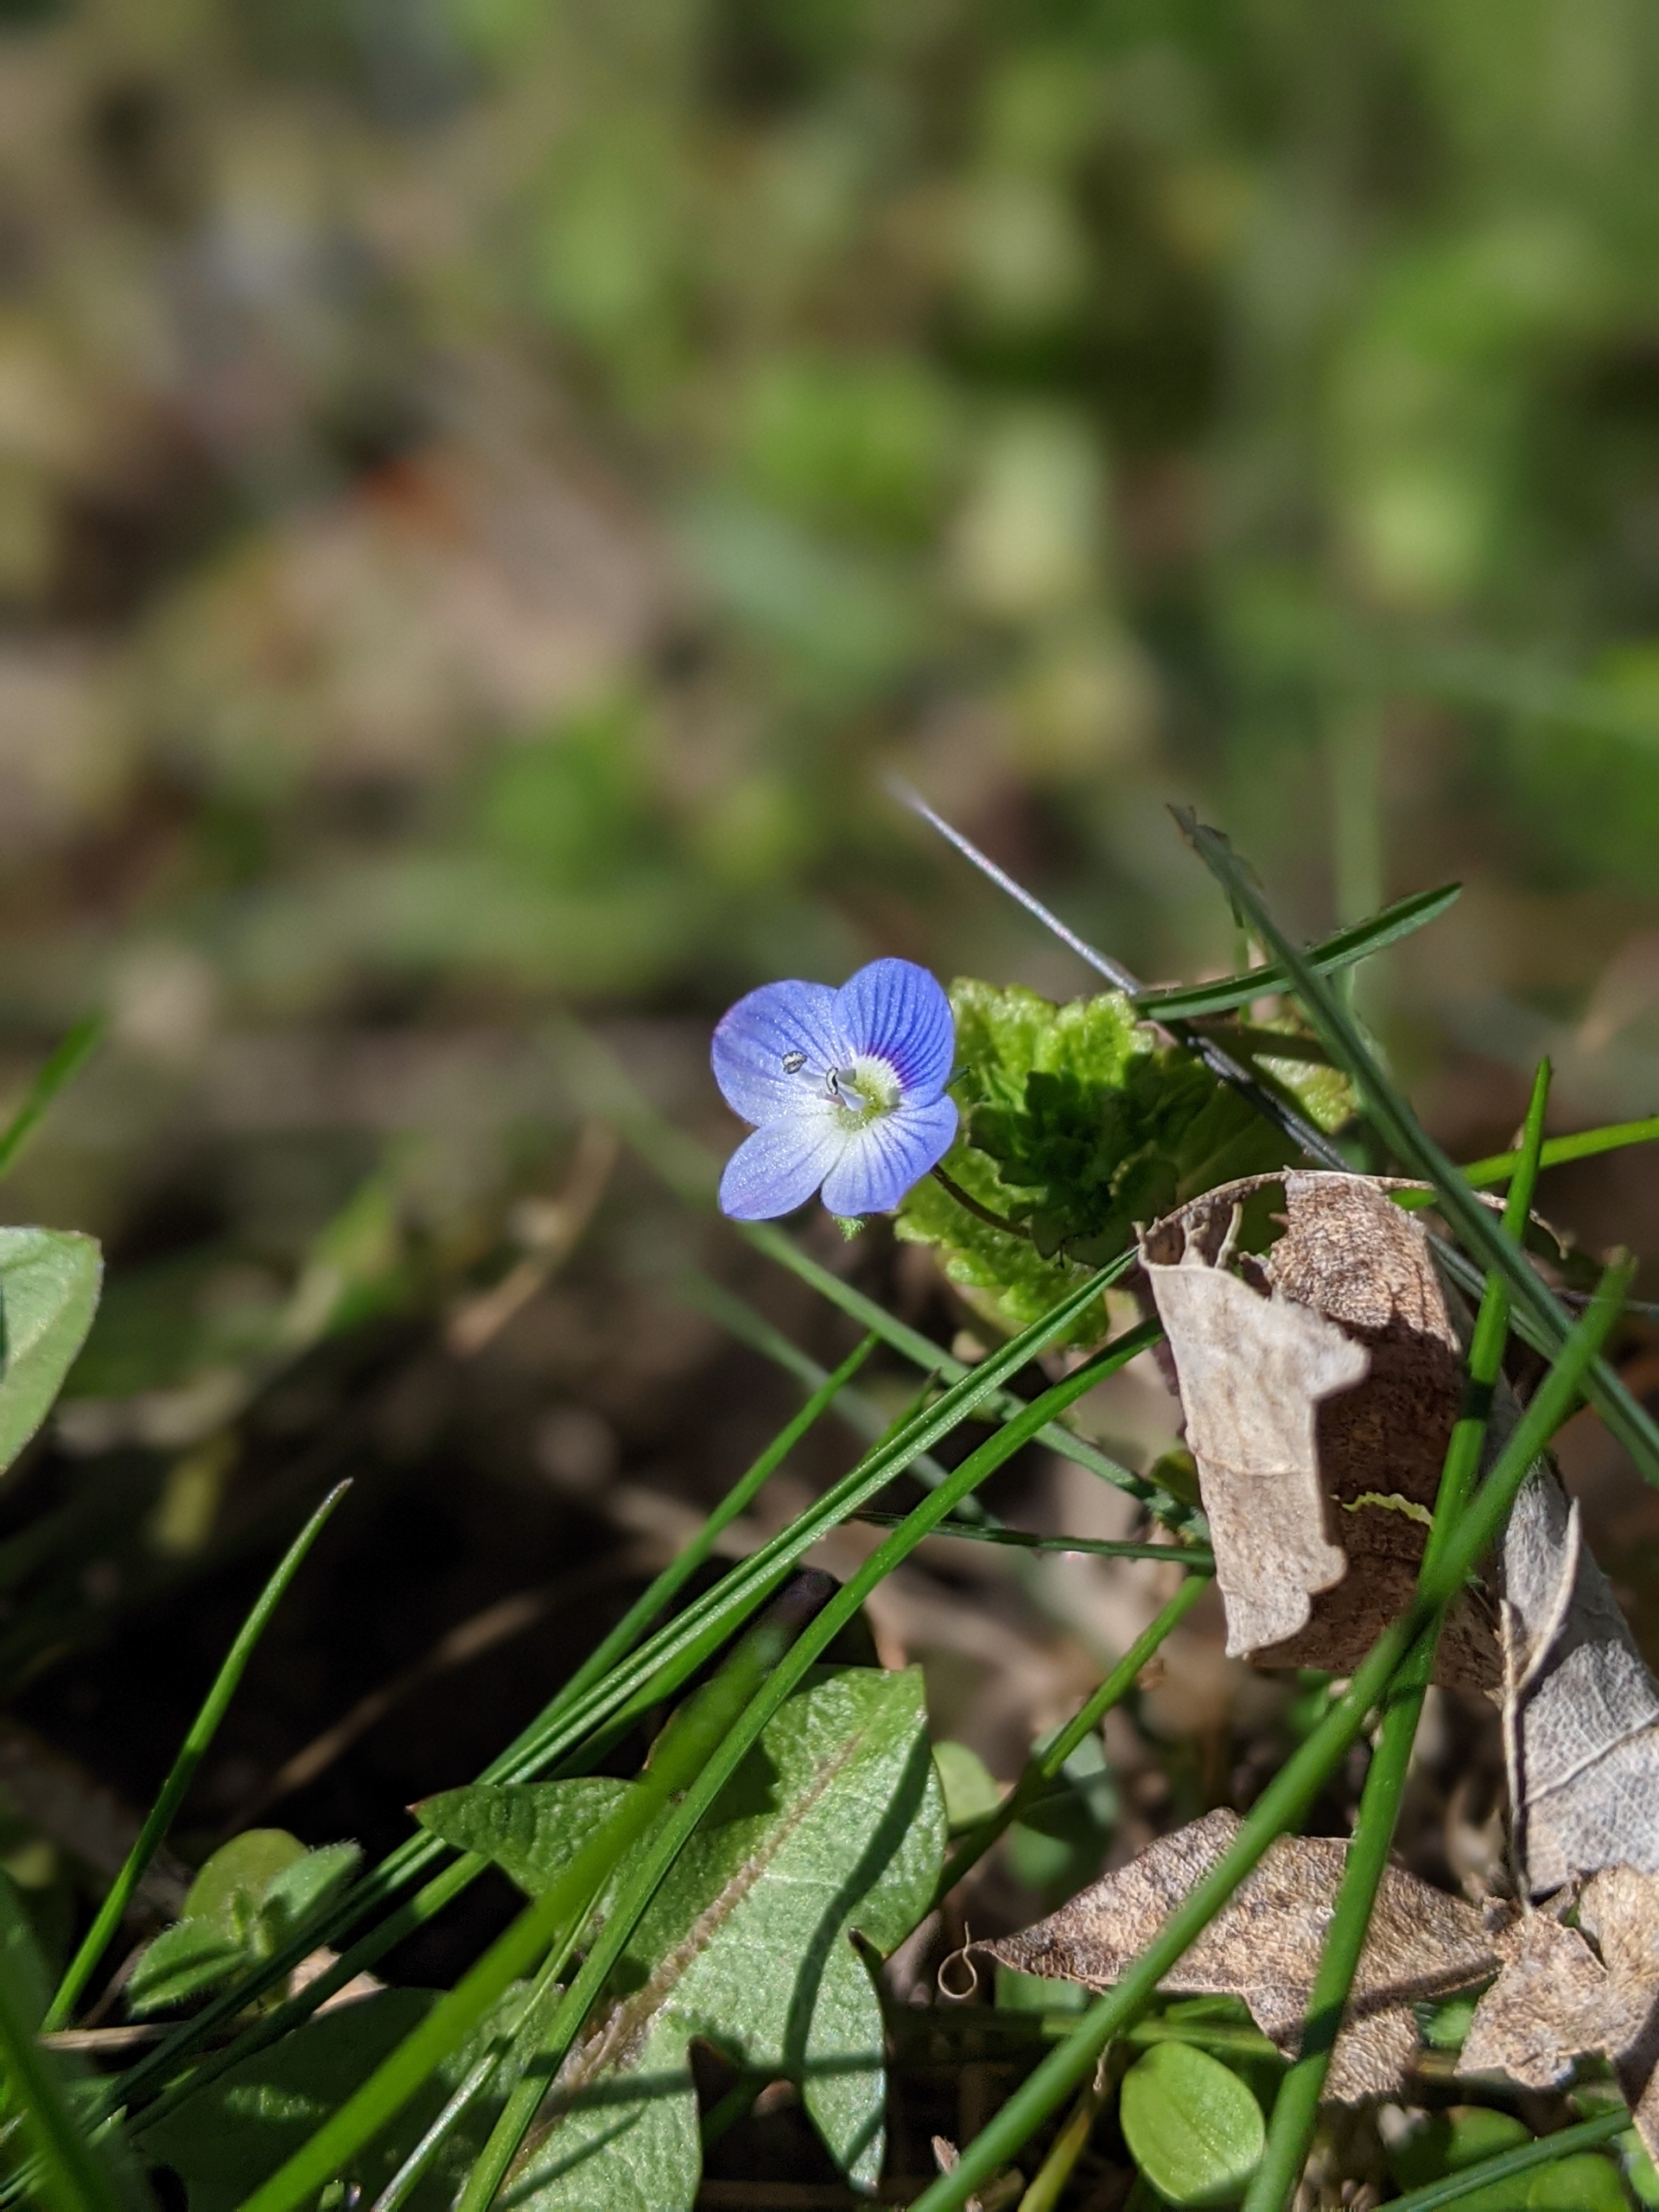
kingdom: Plantae
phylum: Tracheophyta
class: Magnoliopsida
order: Lamiales
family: Plantaginaceae
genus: Veronica
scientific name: Veronica persica
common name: Storkronet ærenpris
